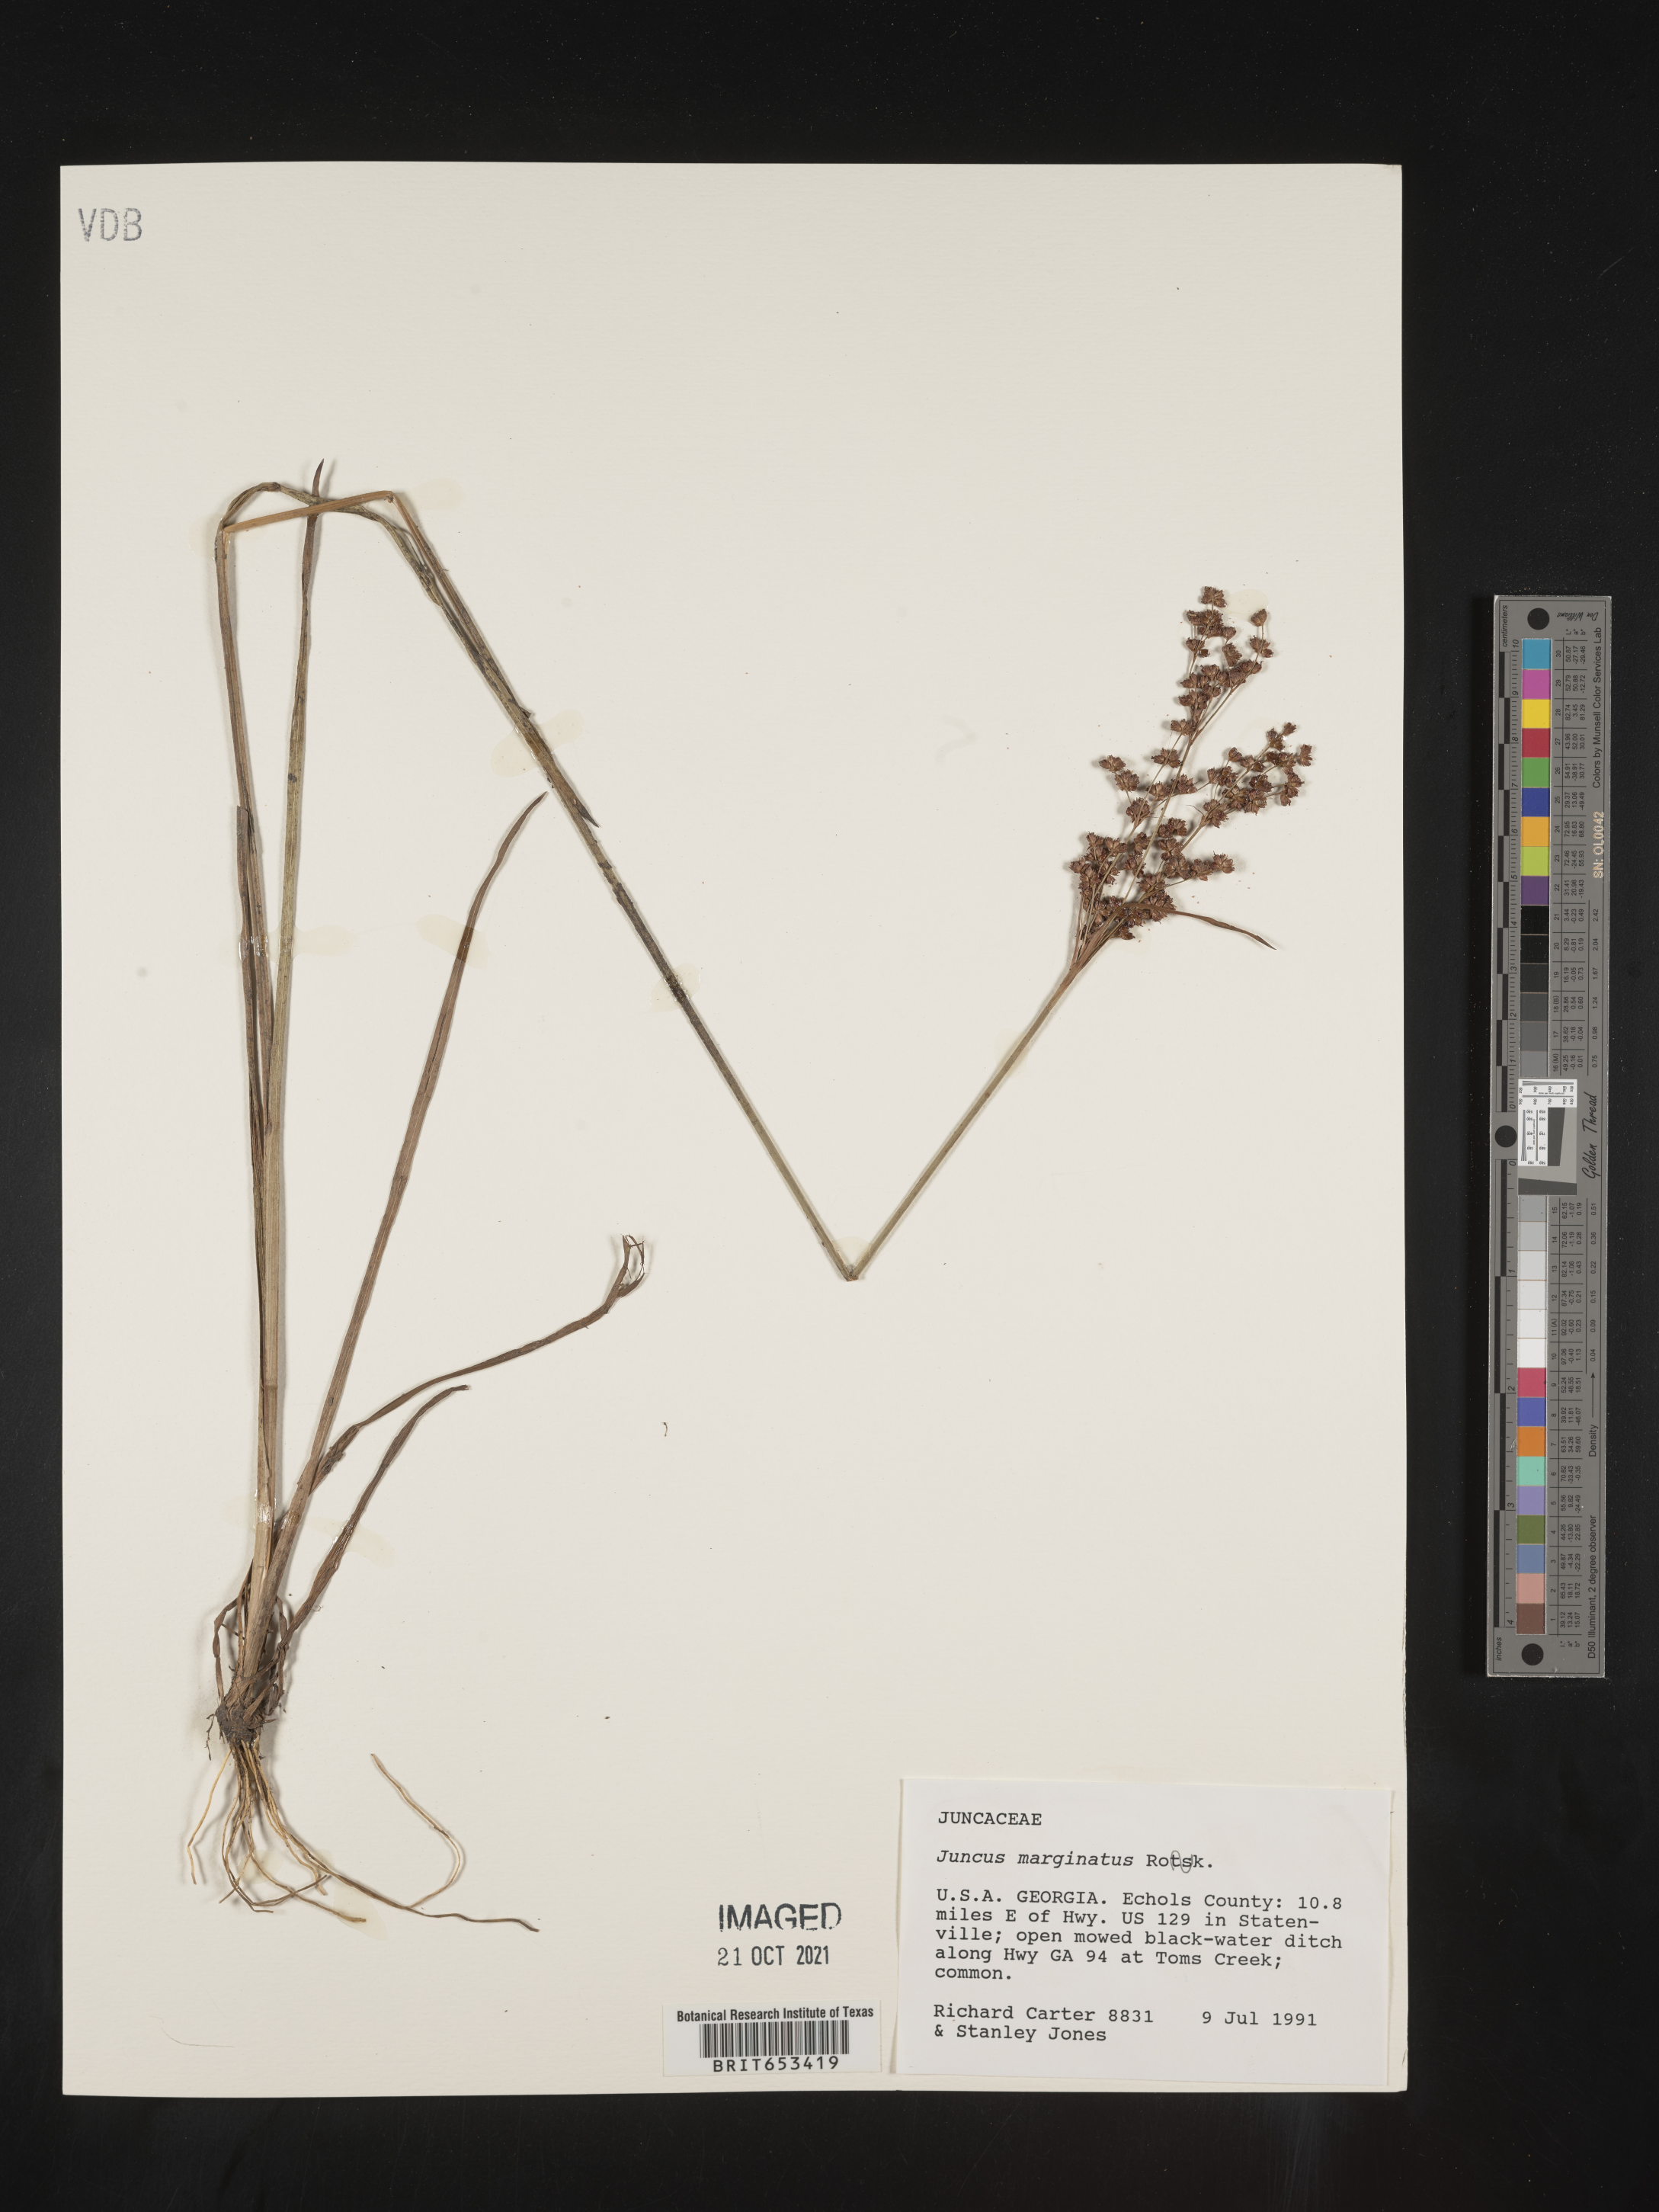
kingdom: Plantae
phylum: Tracheophyta
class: Liliopsida
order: Poales
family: Juncaceae
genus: Juncus
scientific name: Juncus marginatus
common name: Grass-leaf rush
